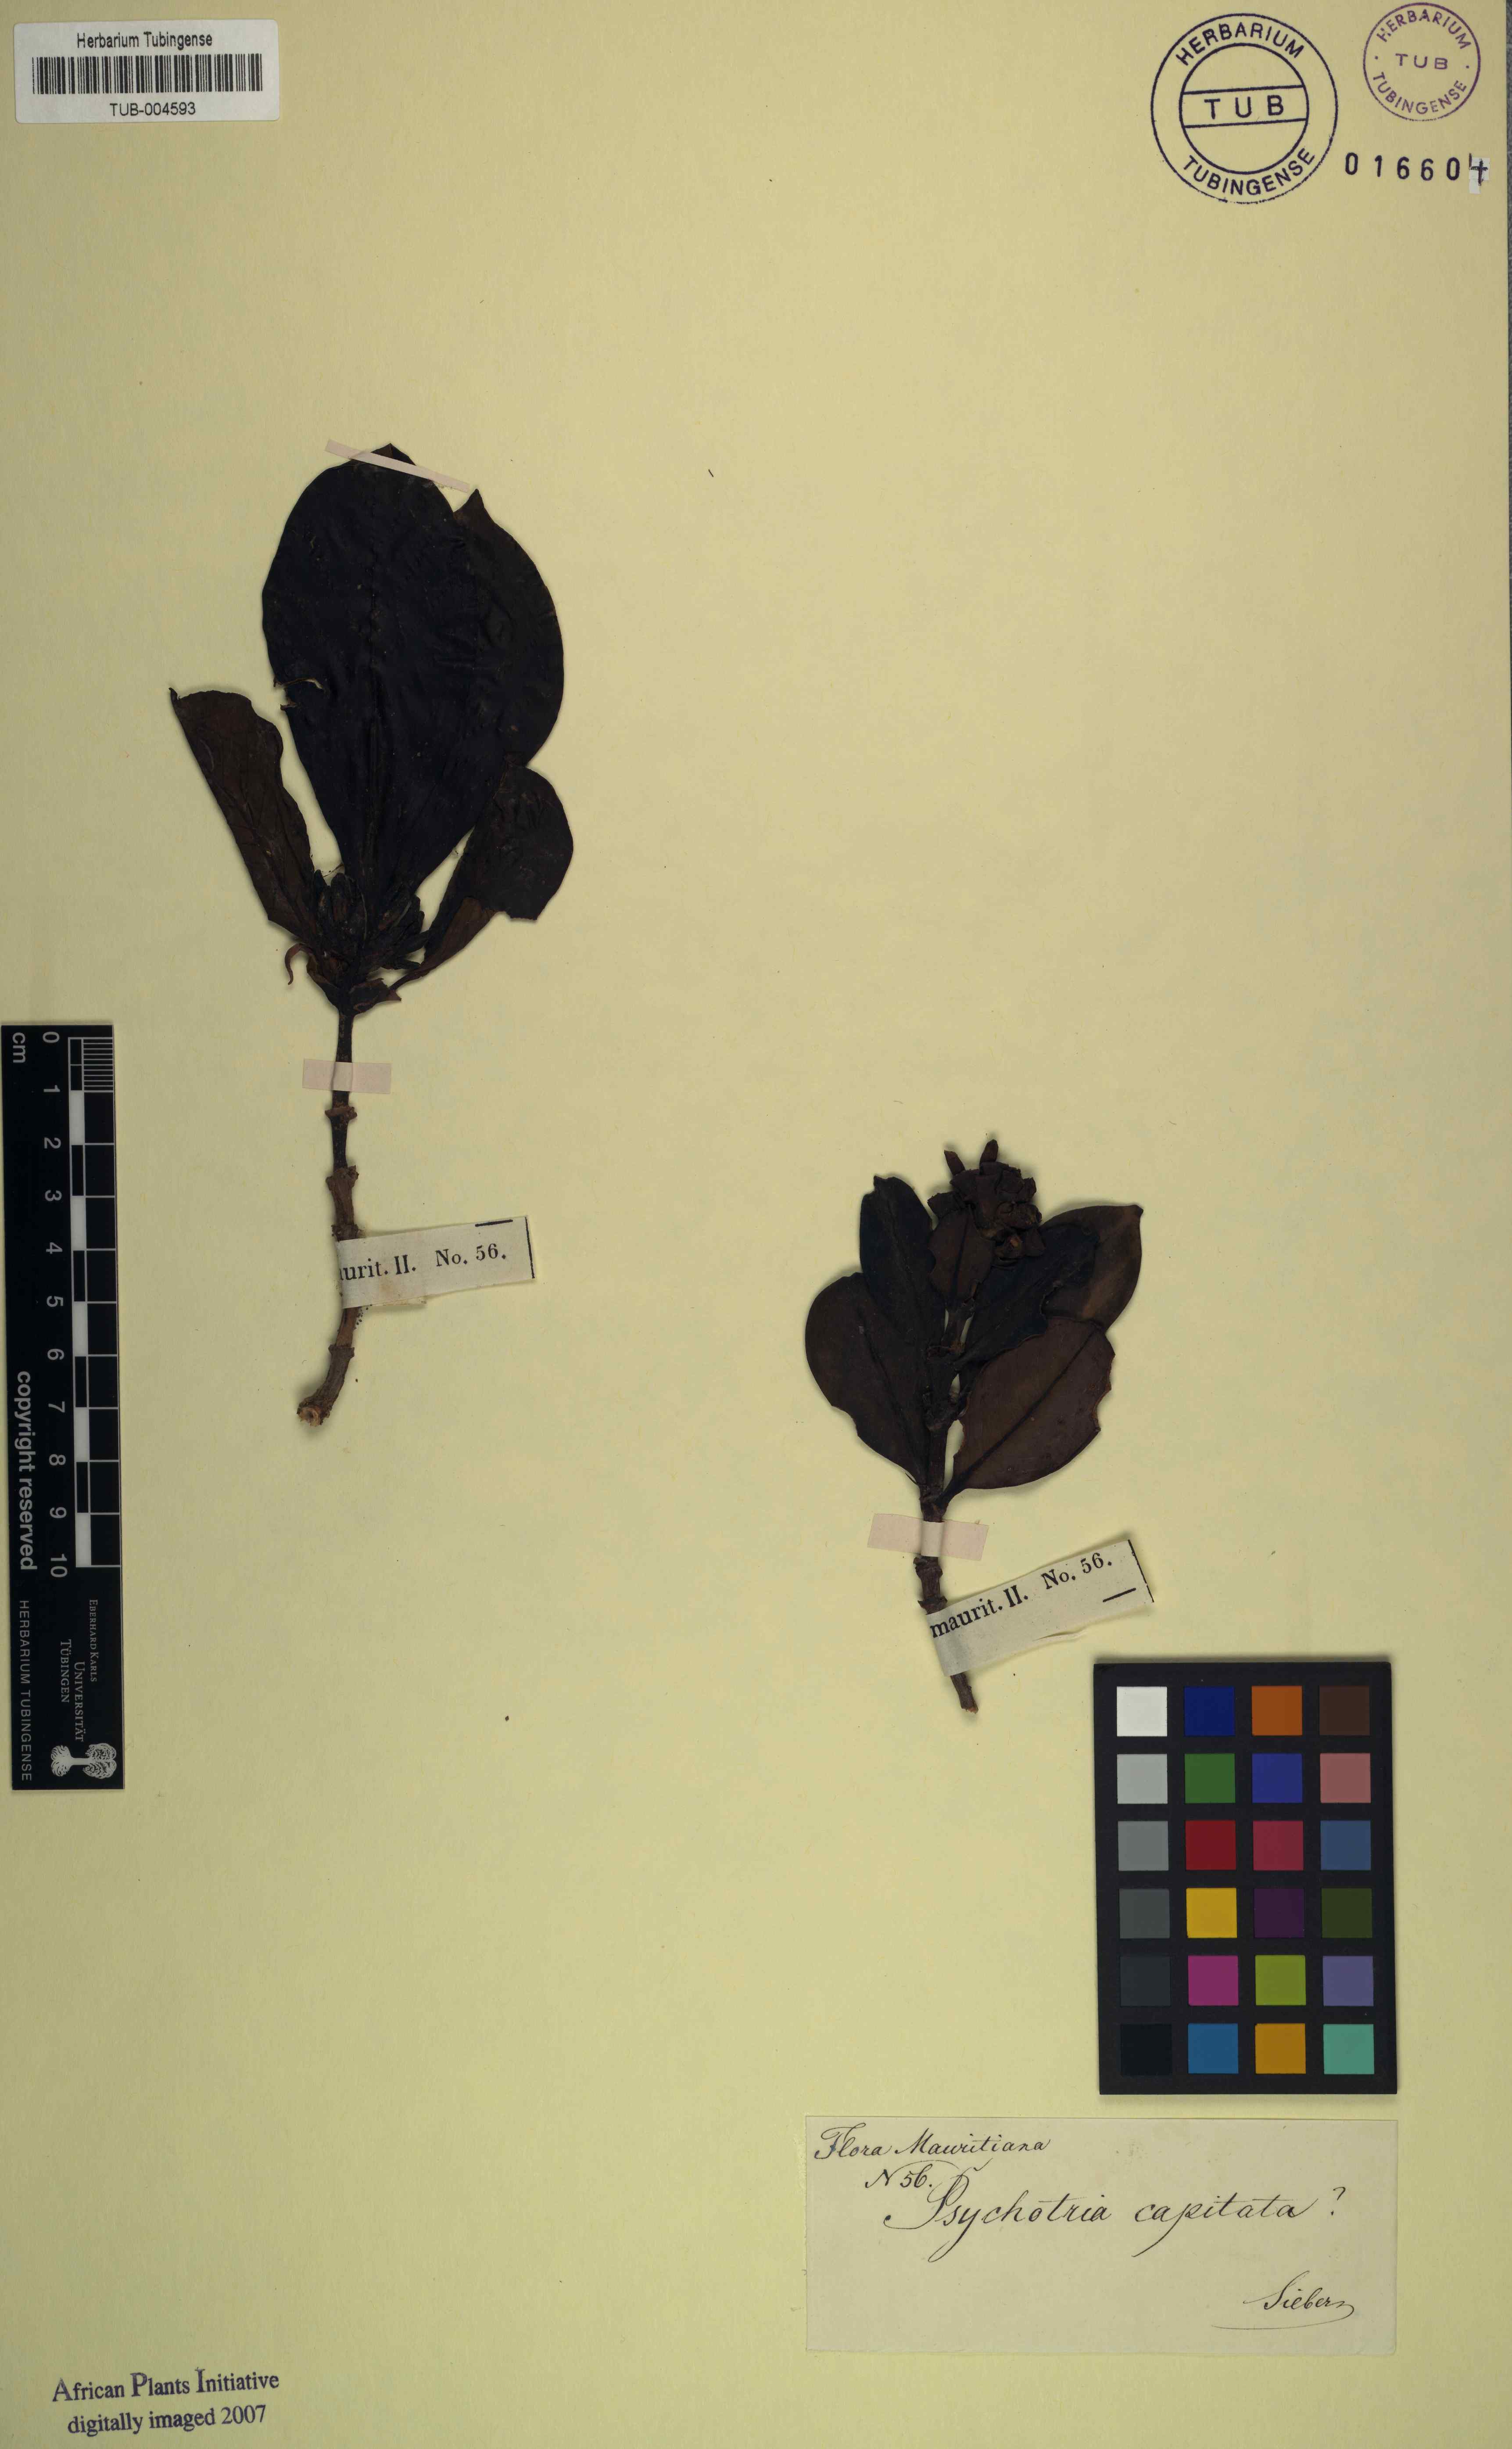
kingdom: Plantae
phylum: Tracheophyta
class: Magnoliopsida
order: Gentianales
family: Rubiaceae
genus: Psychotria
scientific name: Psychotria capitata
